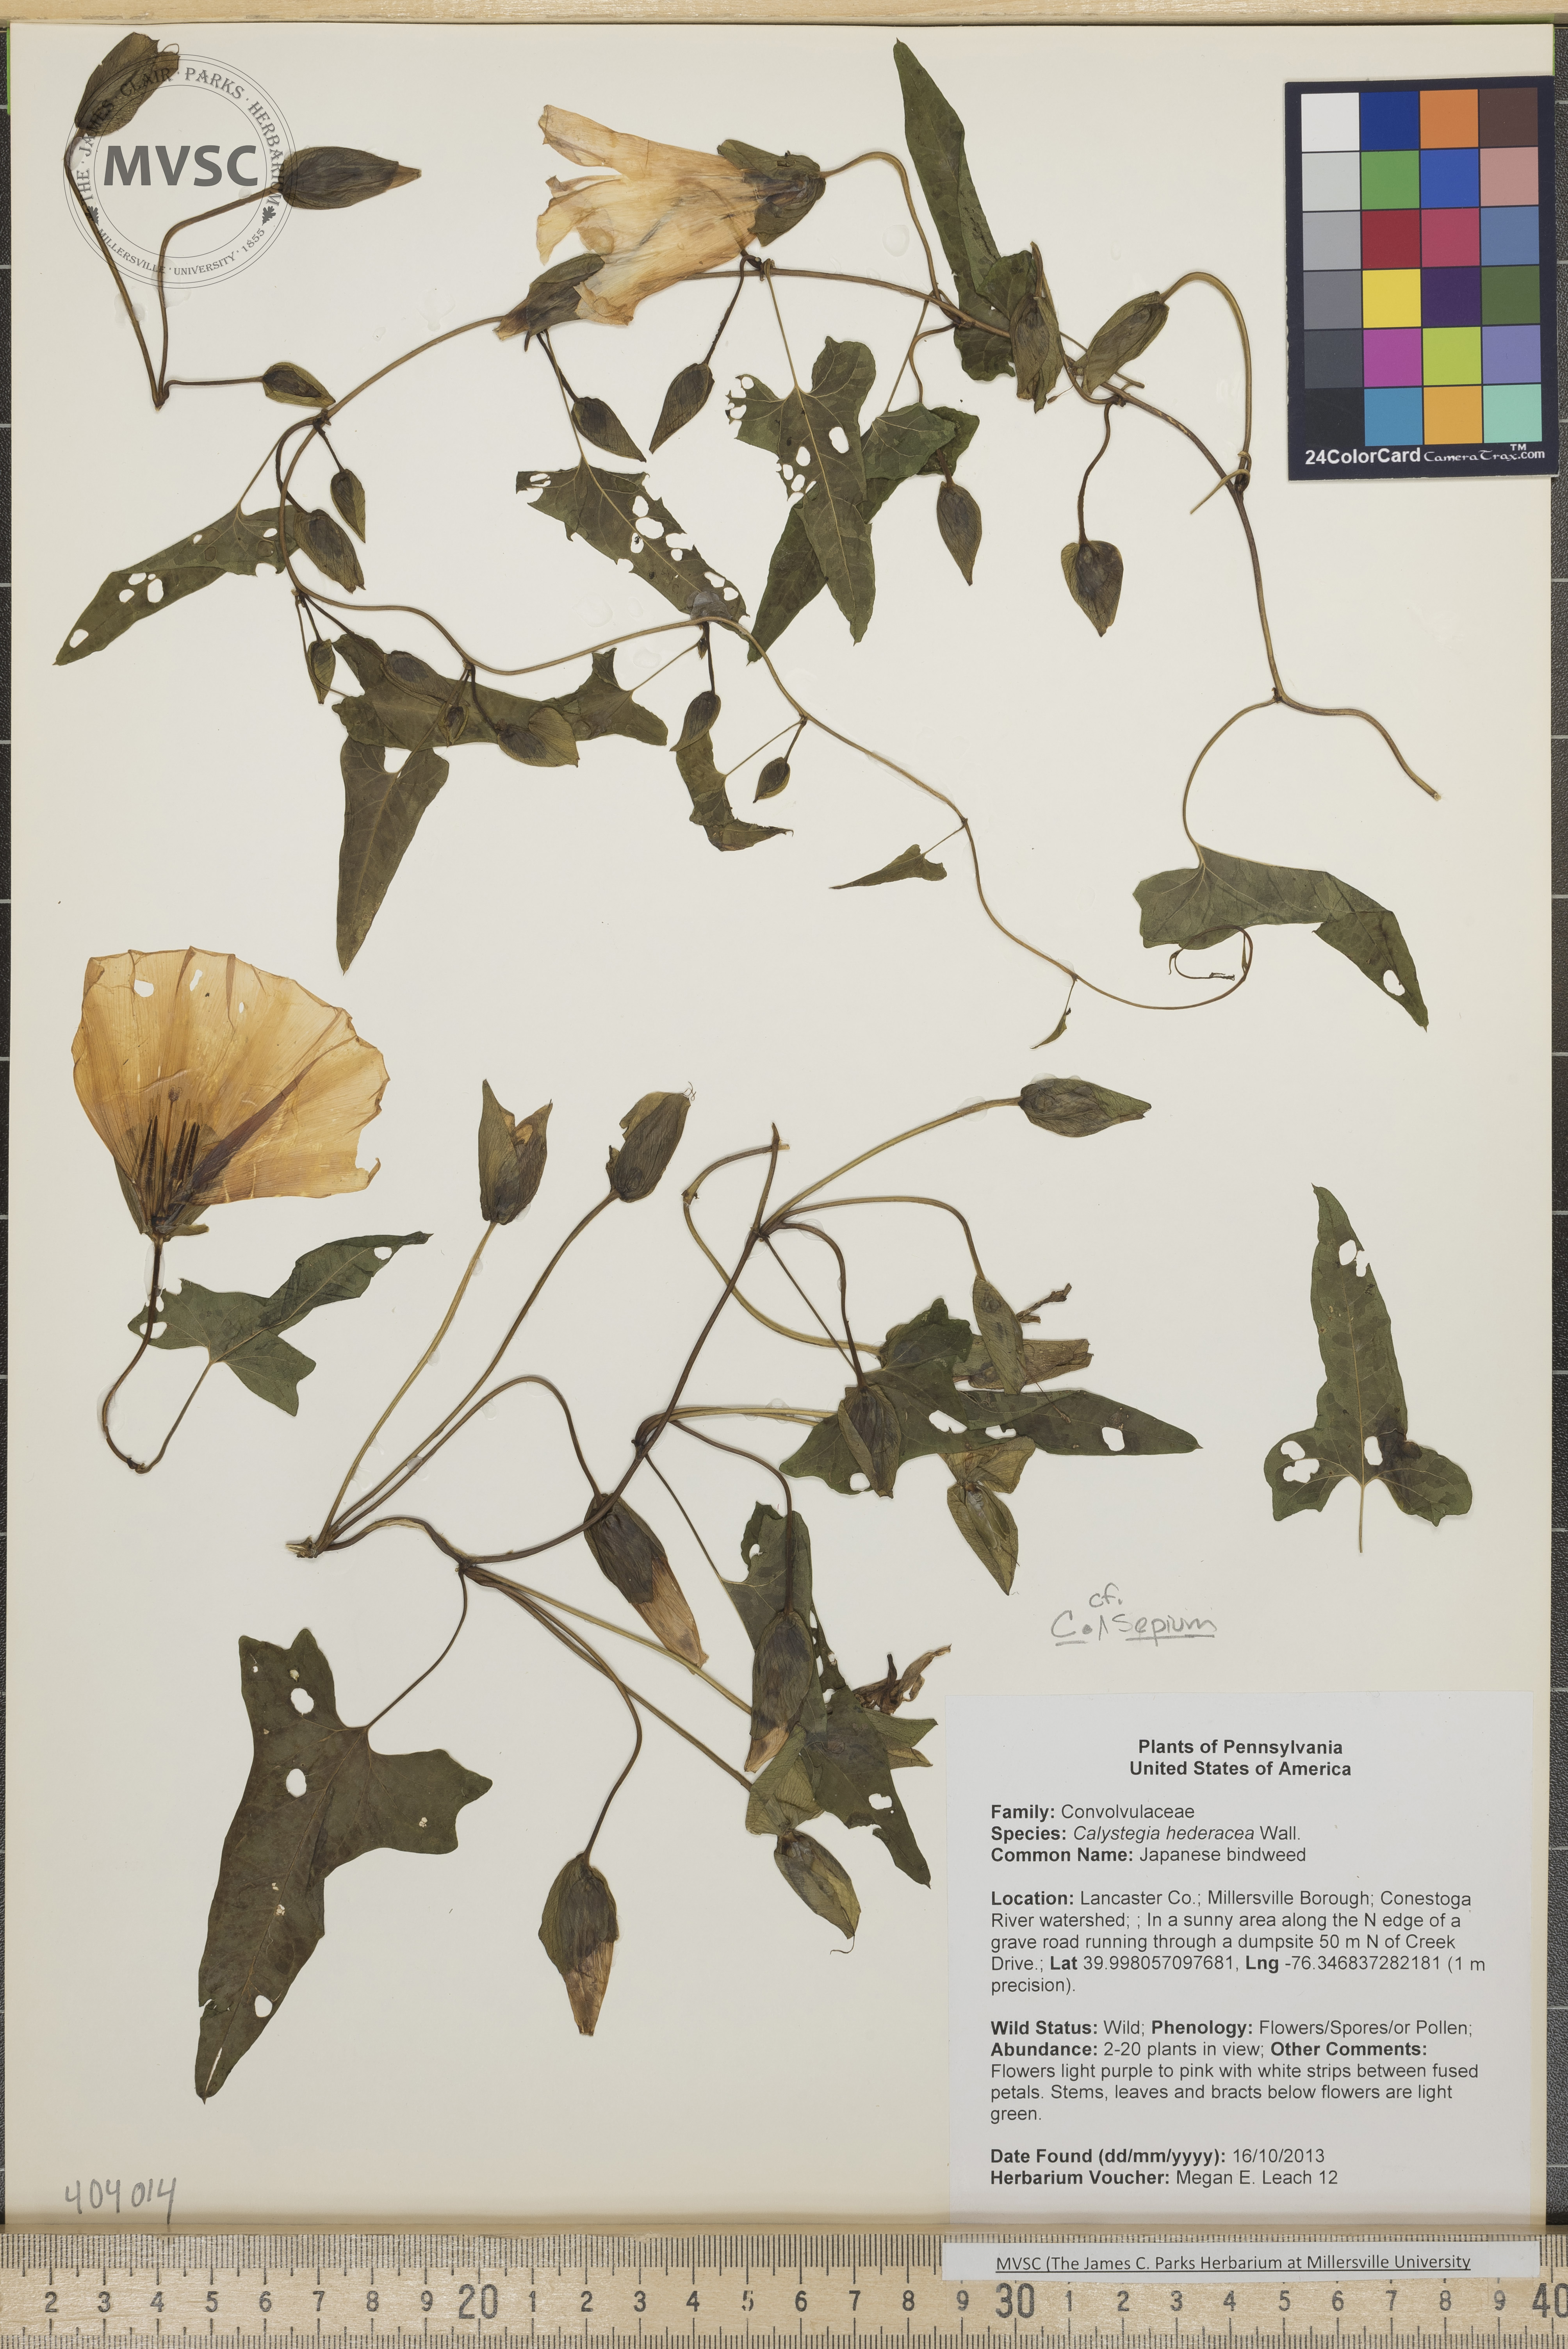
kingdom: Plantae
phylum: Tracheophyta
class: Magnoliopsida
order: Solanales
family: Convolvulaceae
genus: Calystegia
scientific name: Calystegia sepium
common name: Bindweed
